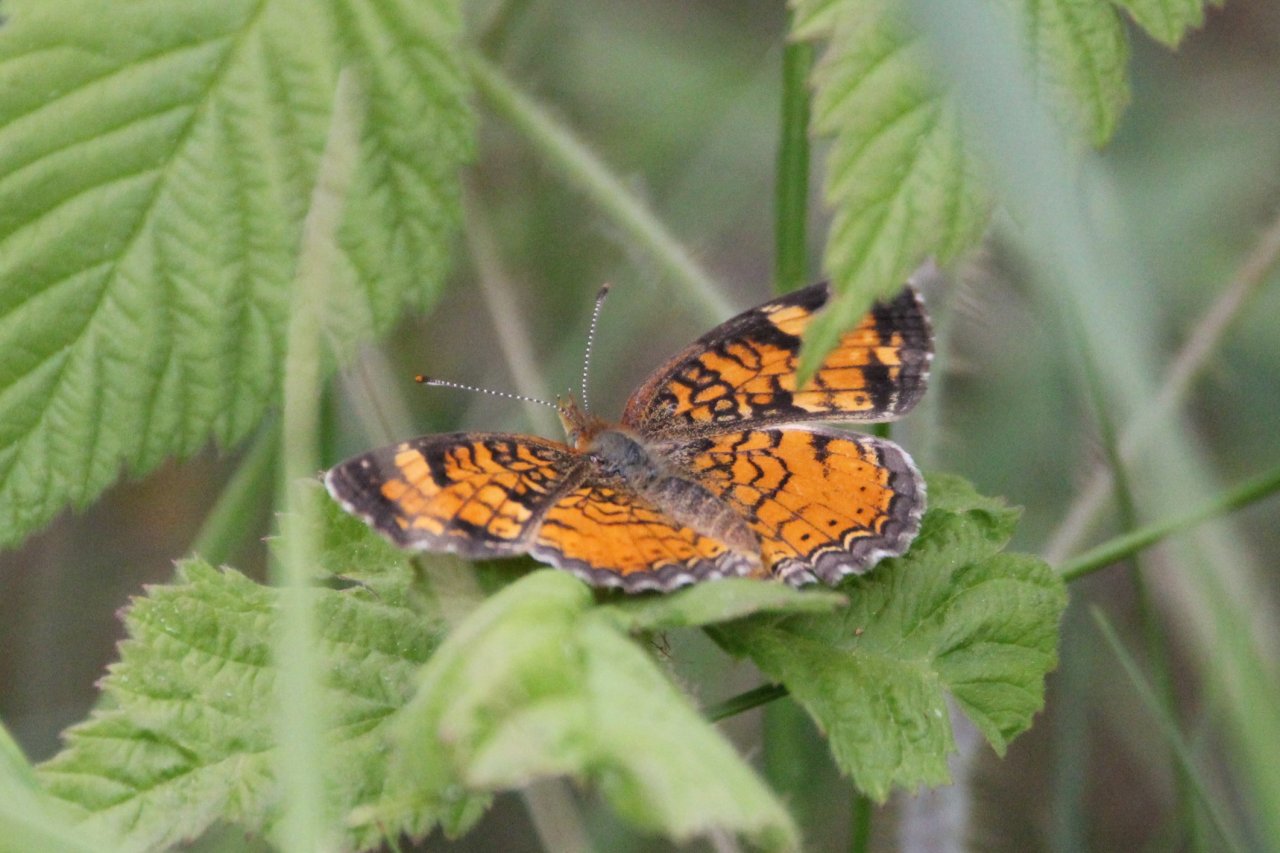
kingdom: Animalia
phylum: Arthropoda
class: Insecta
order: Lepidoptera
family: Nymphalidae
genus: Phyciodes
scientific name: Phyciodes tharos
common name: Northern Crescent
